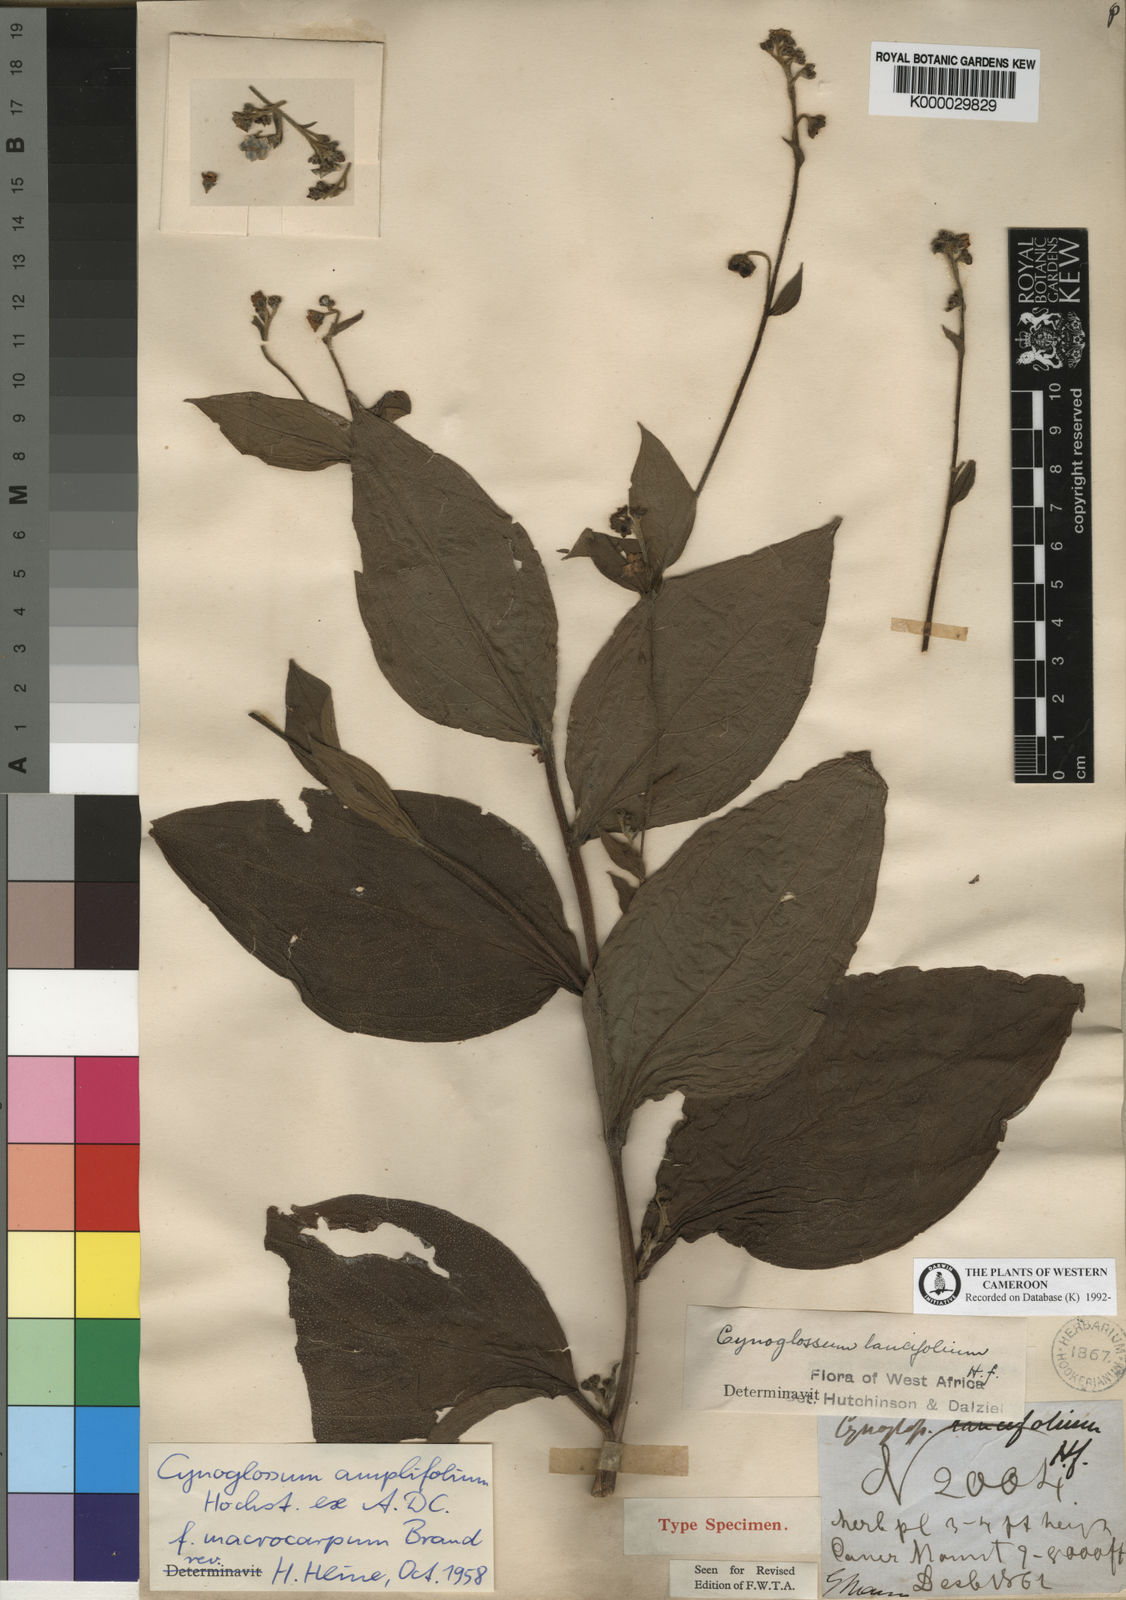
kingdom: Plantae
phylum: Tracheophyta
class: Magnoliopsida
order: Boraginales
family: Boraginaceae
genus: Cynoglossum
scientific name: Cynoglossum amplifolium
